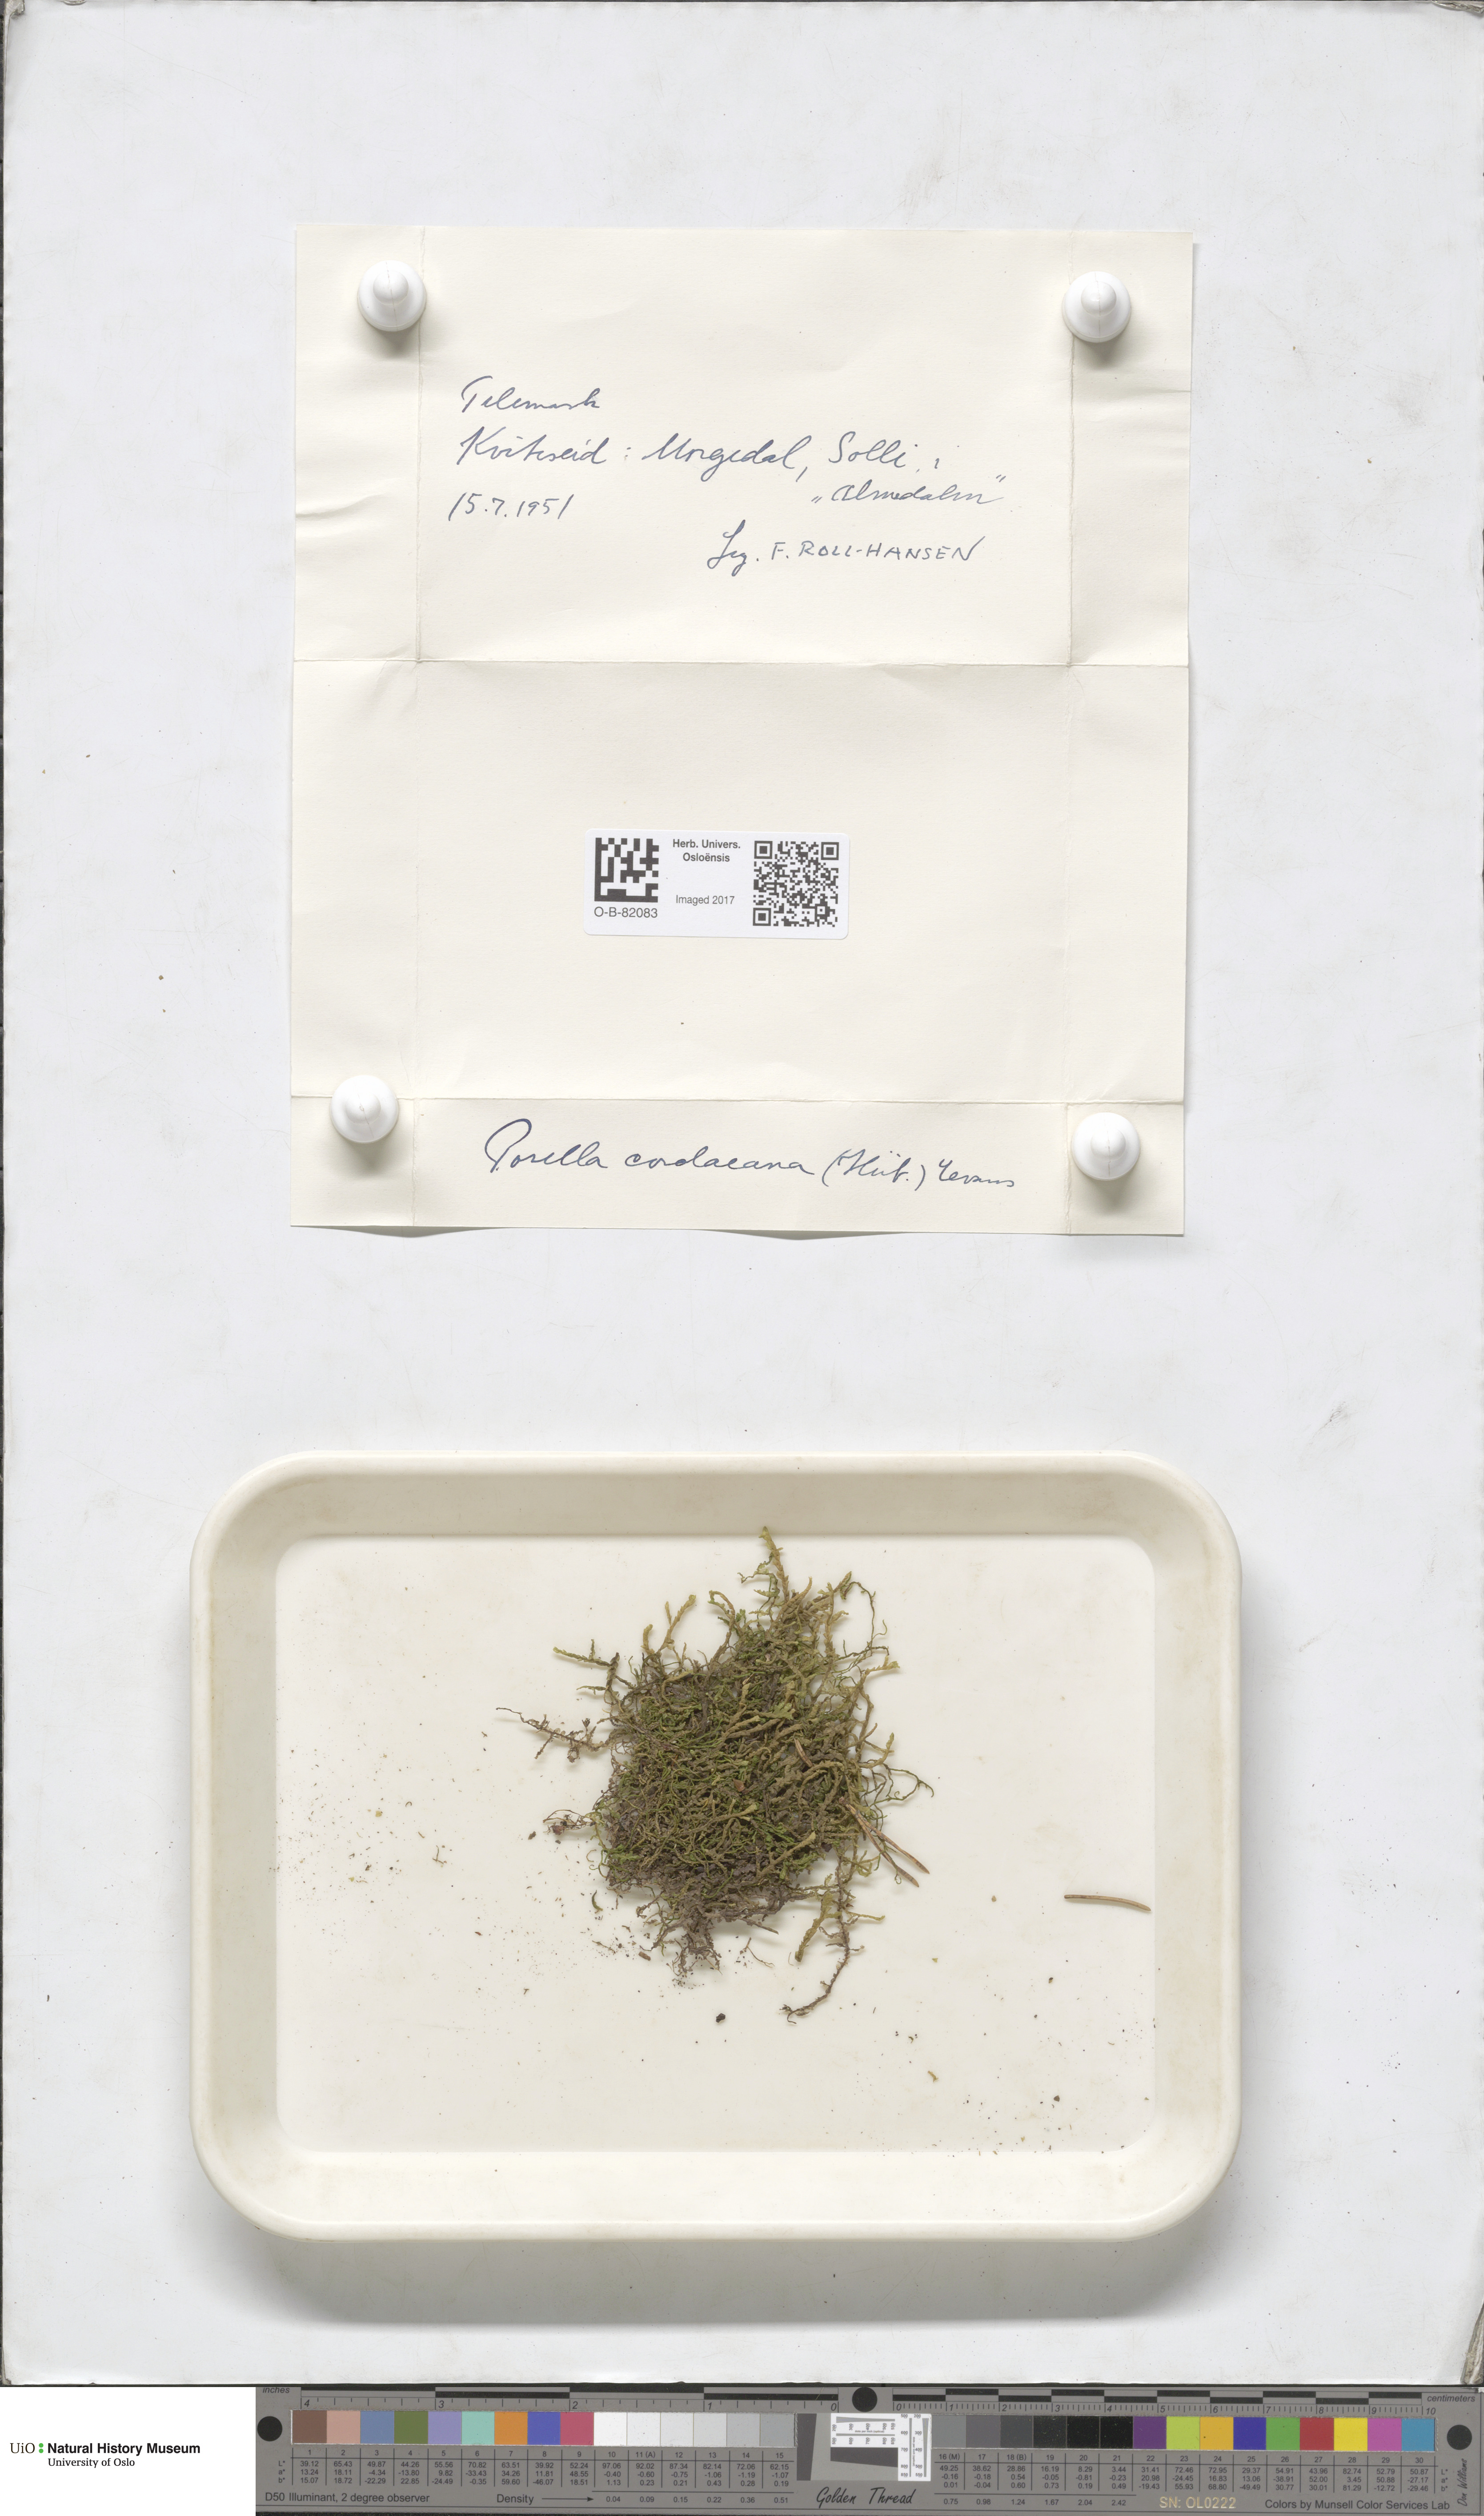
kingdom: Plantae
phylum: Marchantiophyta
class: Jungermanniopsida
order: Porellales
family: Porellaceae
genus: Porella
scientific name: Porella cordaeana
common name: Cliff scalewort
